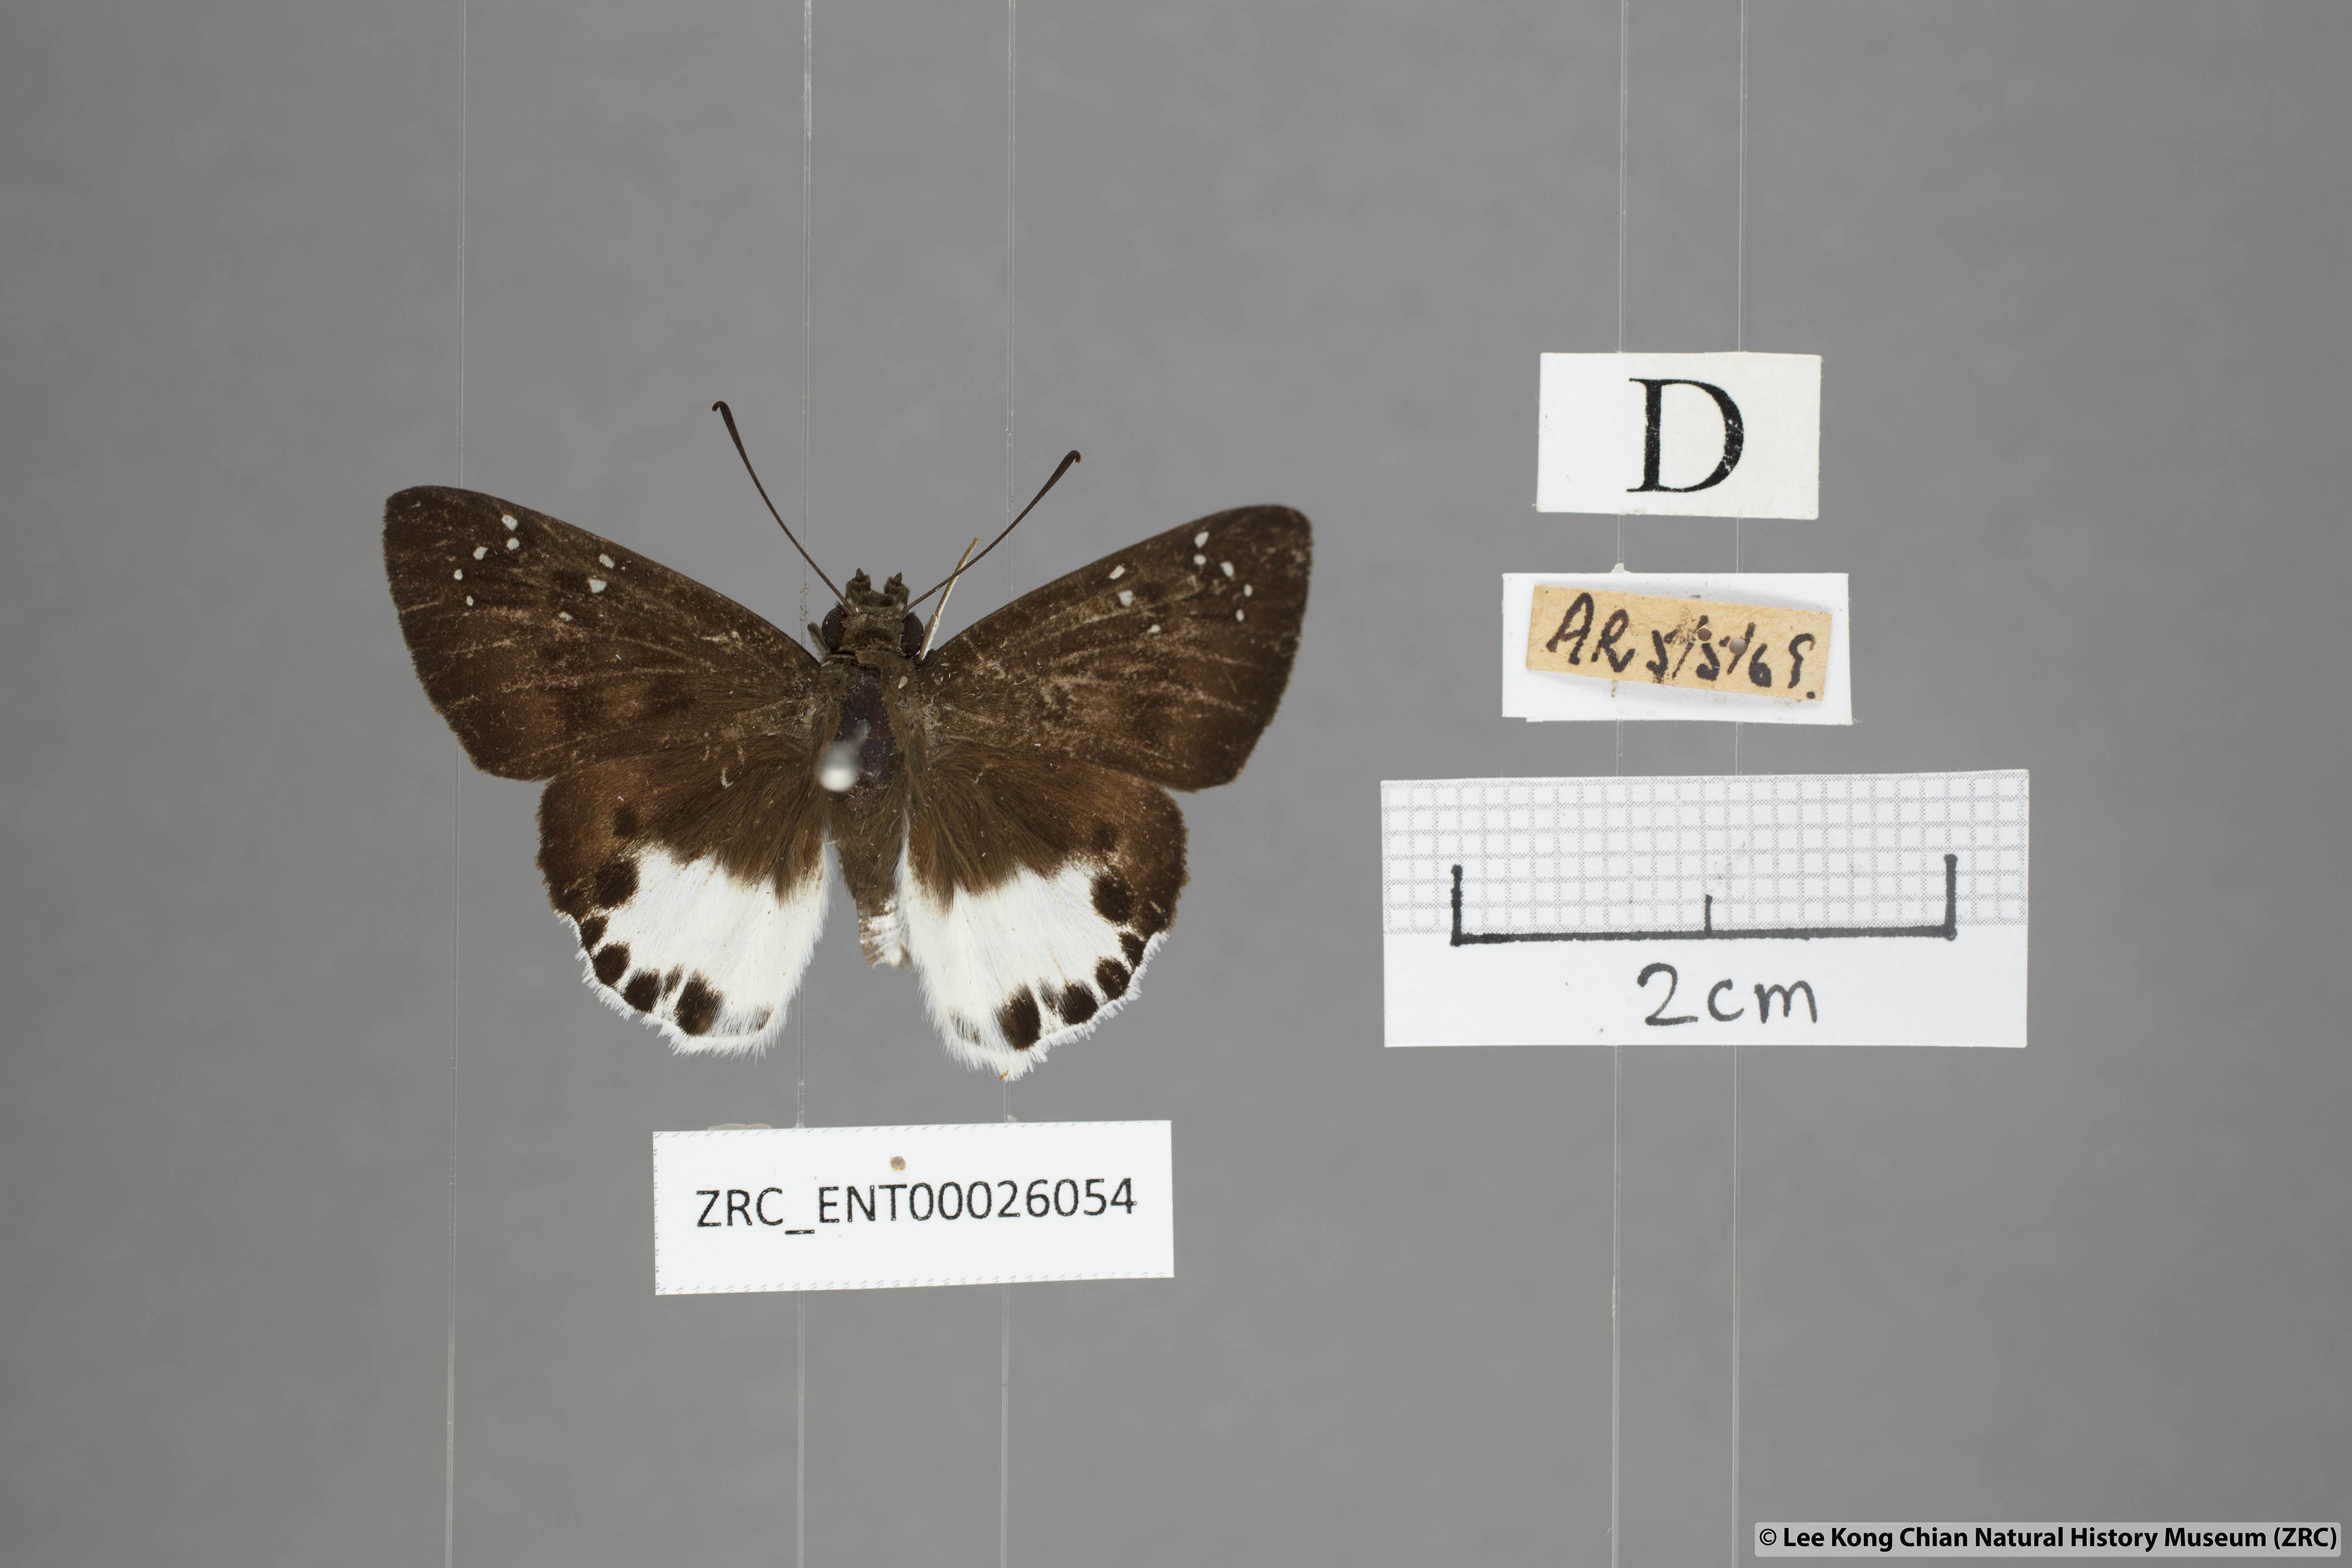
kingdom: Animalia
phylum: Arthropoda
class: Insecta
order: Lepidoptera
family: Hesperiidae
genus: Tagiades
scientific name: Tagiades litigiosa
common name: Water snow flat
